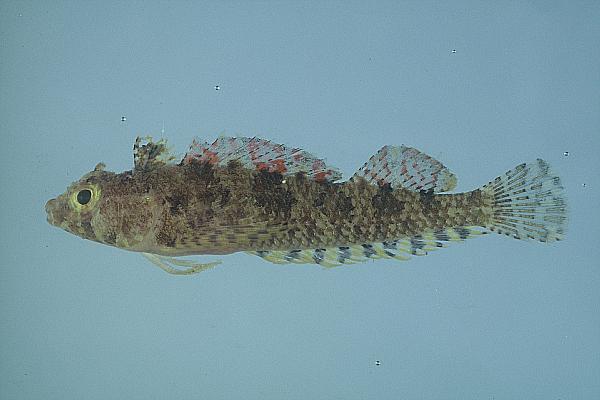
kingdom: Animalia
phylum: Chordata
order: Perciformes
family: Tripterygiidae
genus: Norfolkia
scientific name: Norfolkia brachylepis
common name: Tropical scaly-headed triplefin
